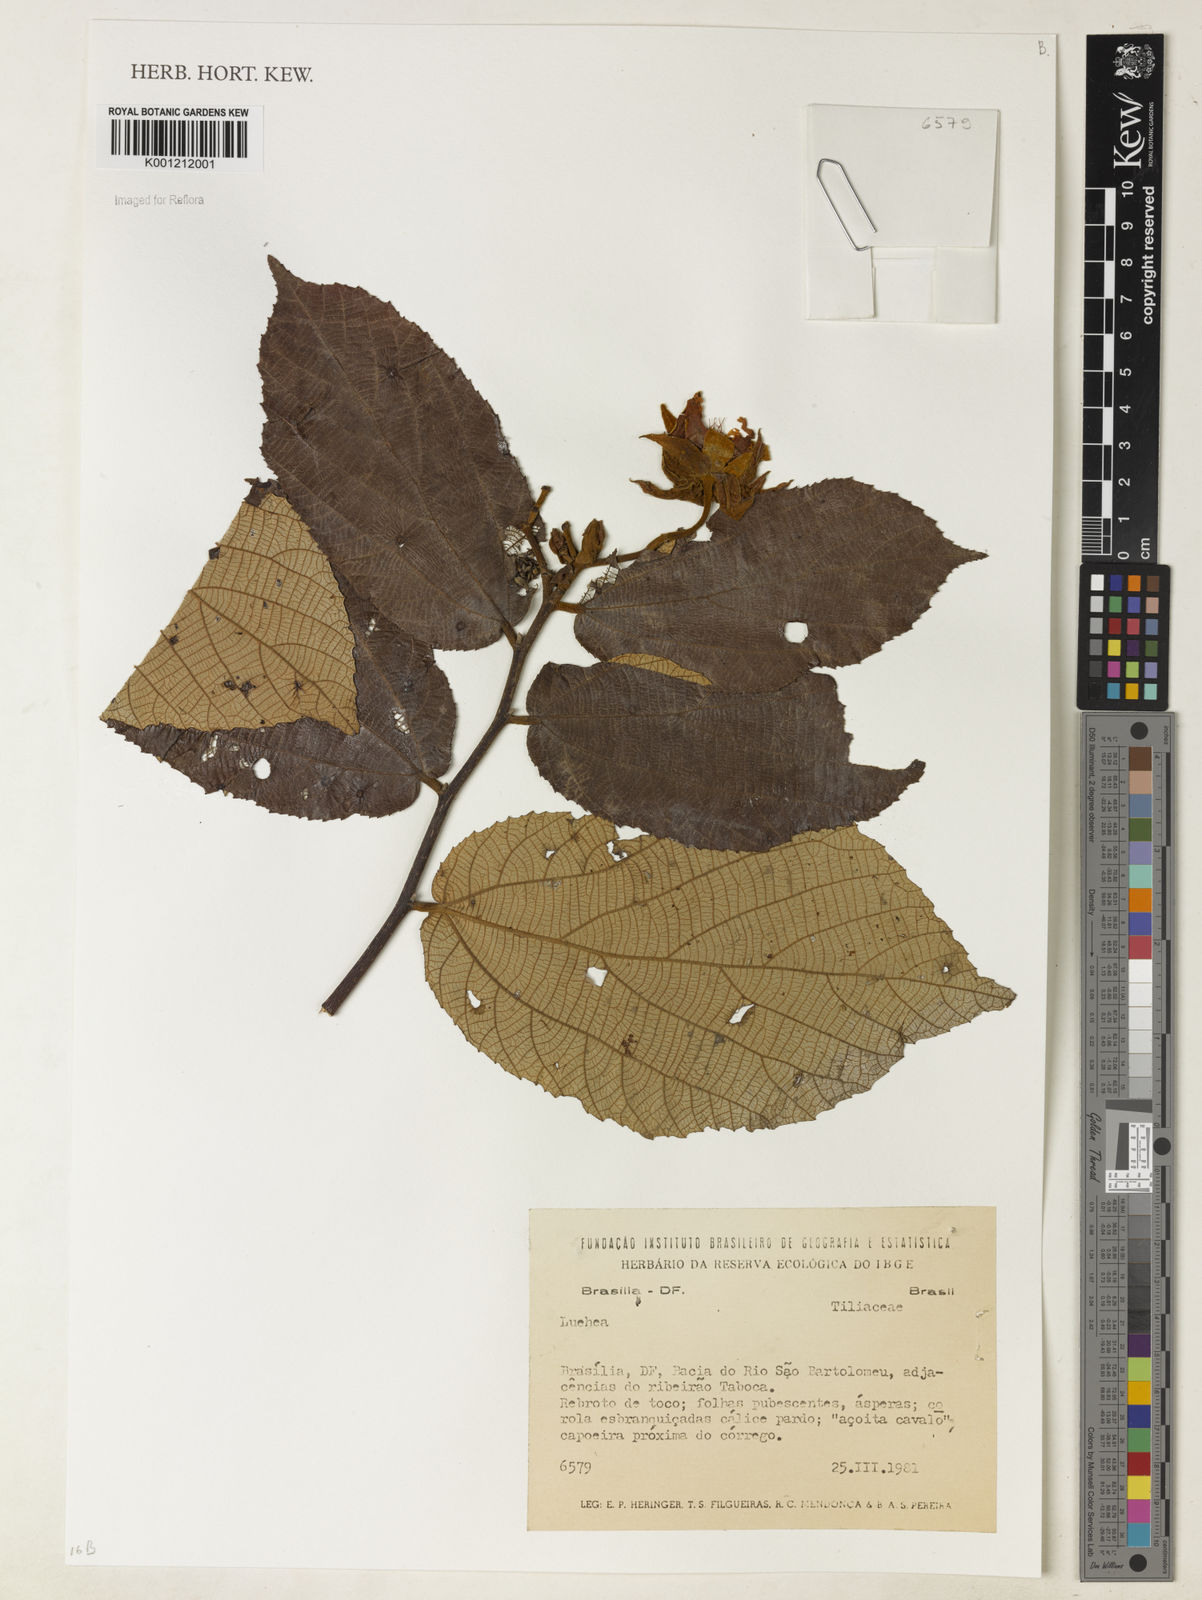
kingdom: Plantae
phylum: Tracheophyta
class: Magnoliopsida
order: Malvales
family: Malvaceae
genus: Luehea
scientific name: Luehea
